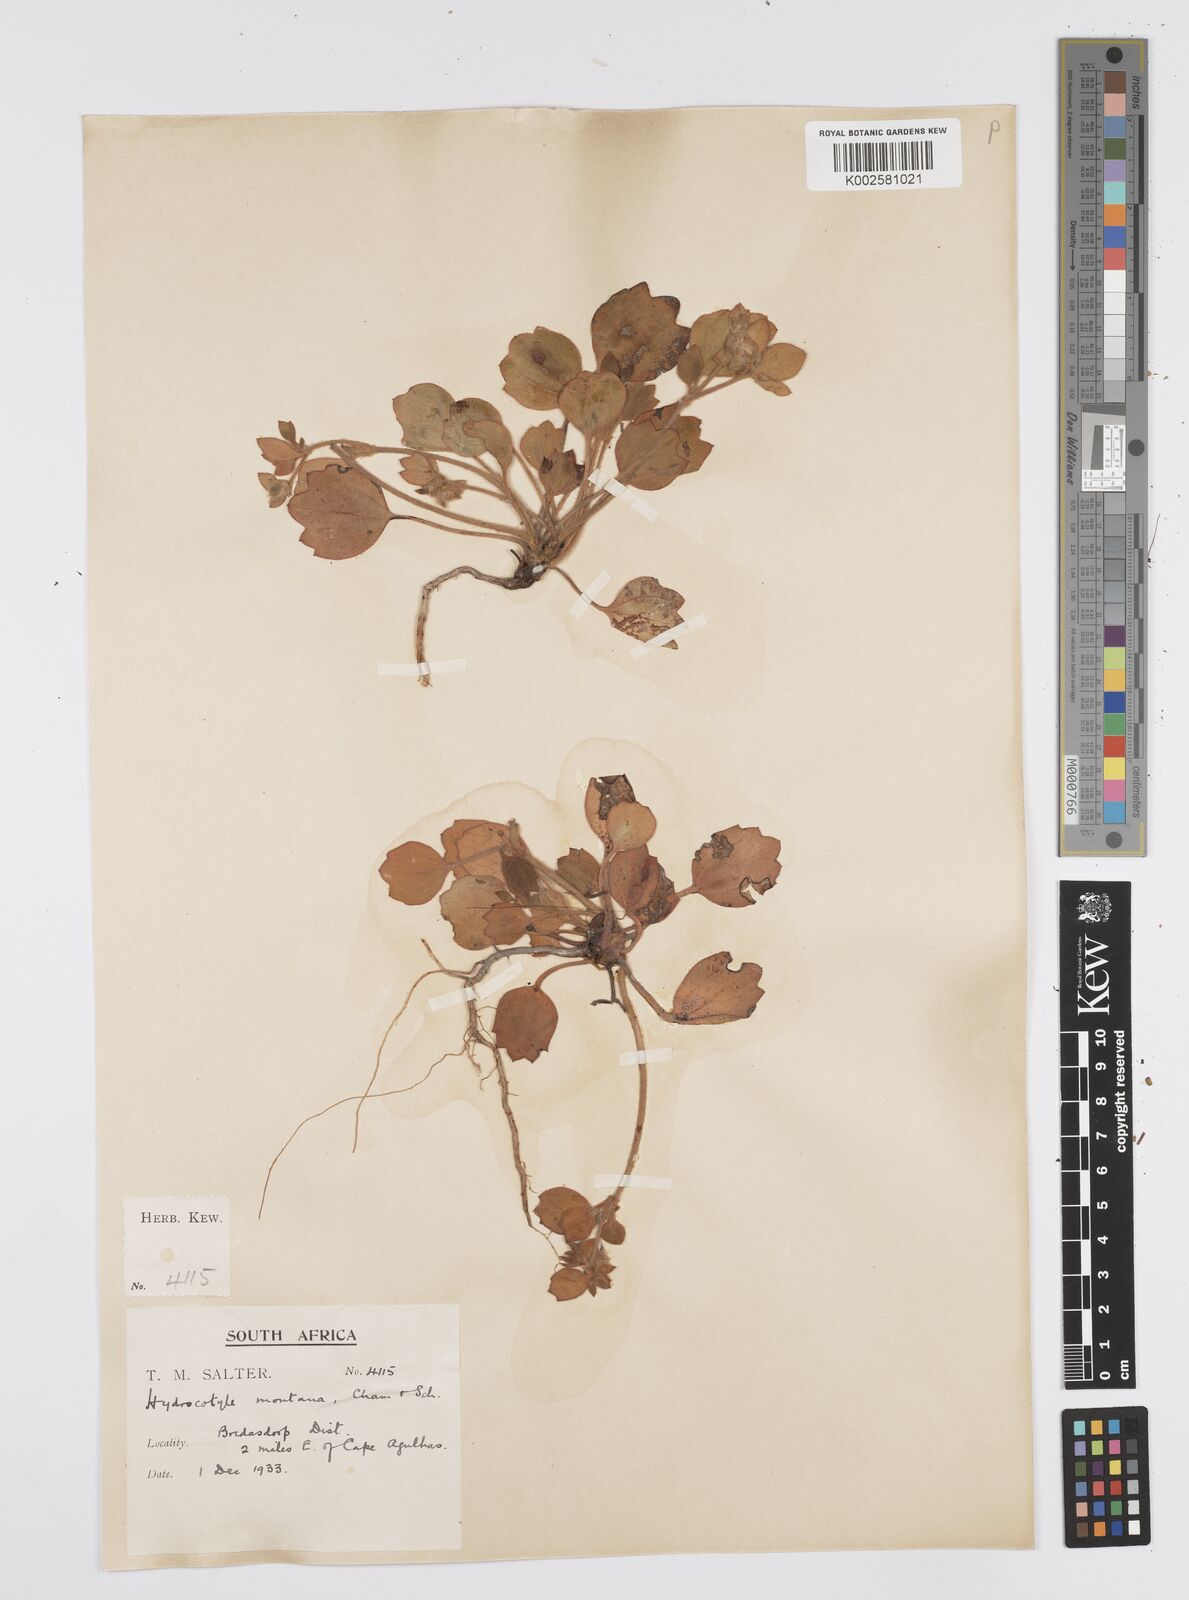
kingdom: Plantae
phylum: Tracheophyta
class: Magnoliopsida
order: Apiales
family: Apiaceae
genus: Centella
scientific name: Centella difformis
